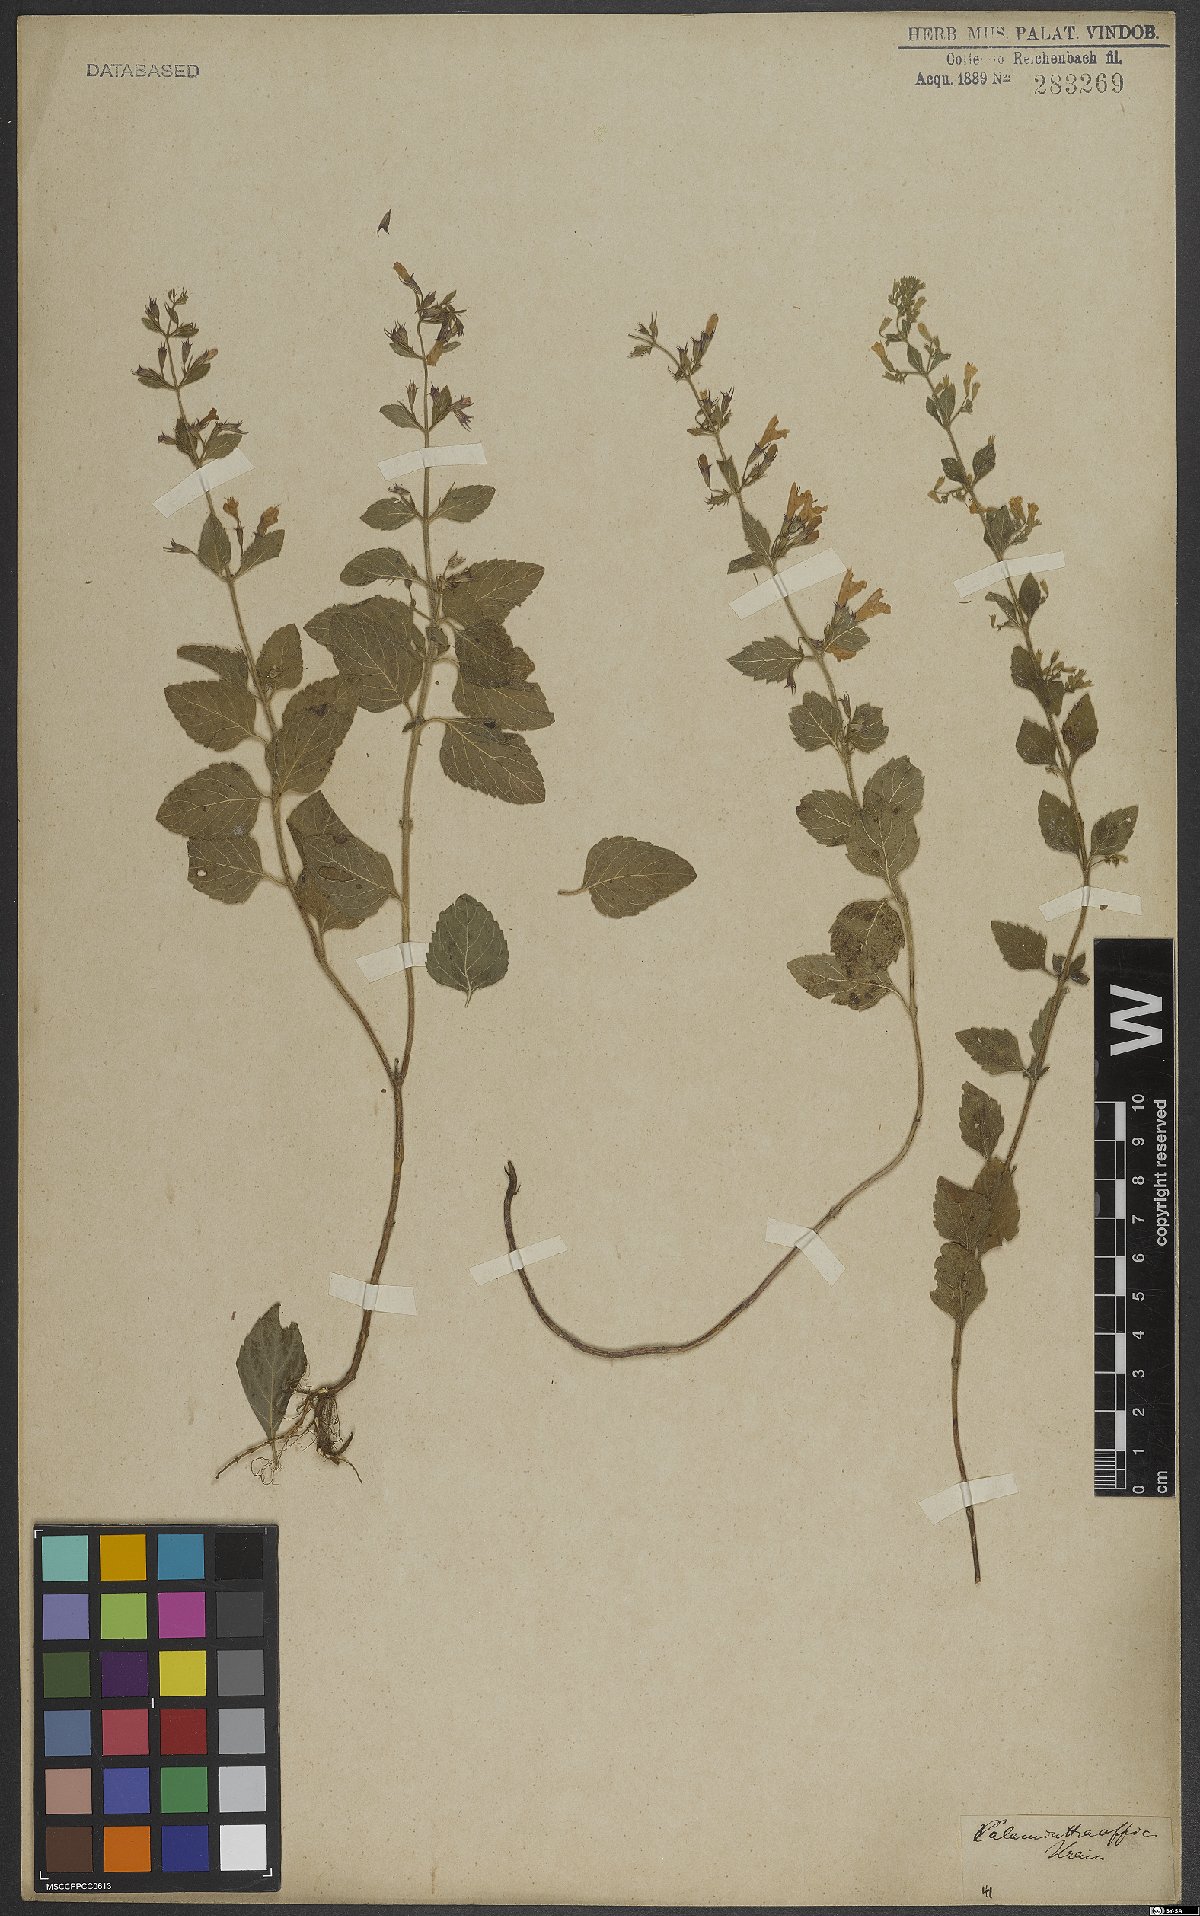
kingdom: Plantae
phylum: Tracheophyta
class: Magnoliopsida
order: Lamiales
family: Lamiaceae
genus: Clinopodium
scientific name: Clinopodium nepeta
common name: Lesser calamint
